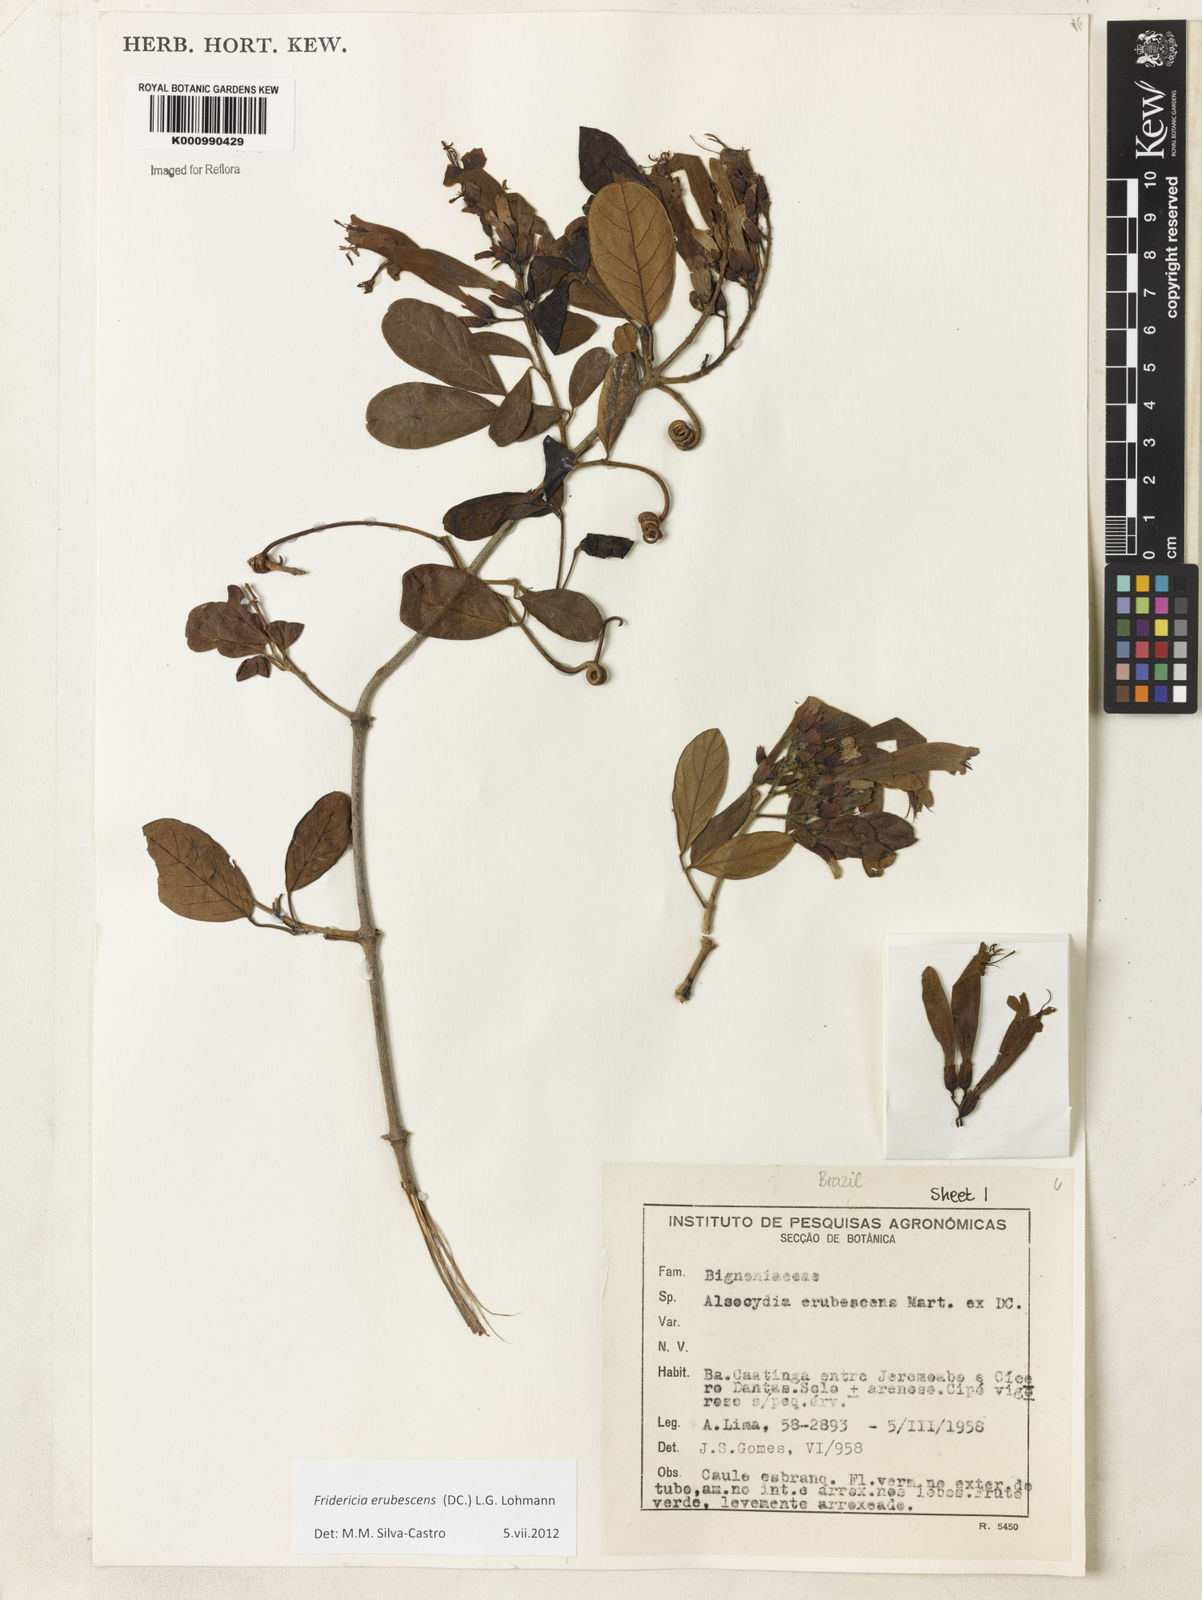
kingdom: Plantae
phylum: Tracheophyta
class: Magnoliopsida
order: Lamiales
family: Bignoniaceae
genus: Fridericia
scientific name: Fridericia erubescens
